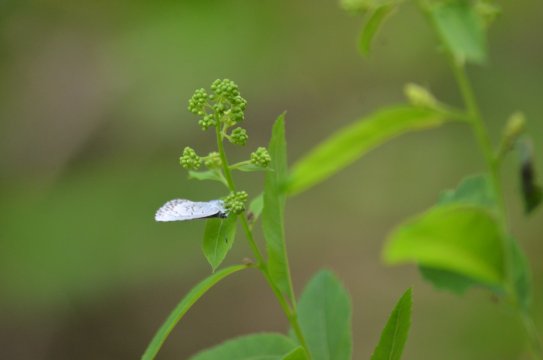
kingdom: Animalia
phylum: Arthropoda
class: Insecta
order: Lepidoptera
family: Lycaenidae
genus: Celastrina
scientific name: Celastrina lucia
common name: Northern Spring Azure
